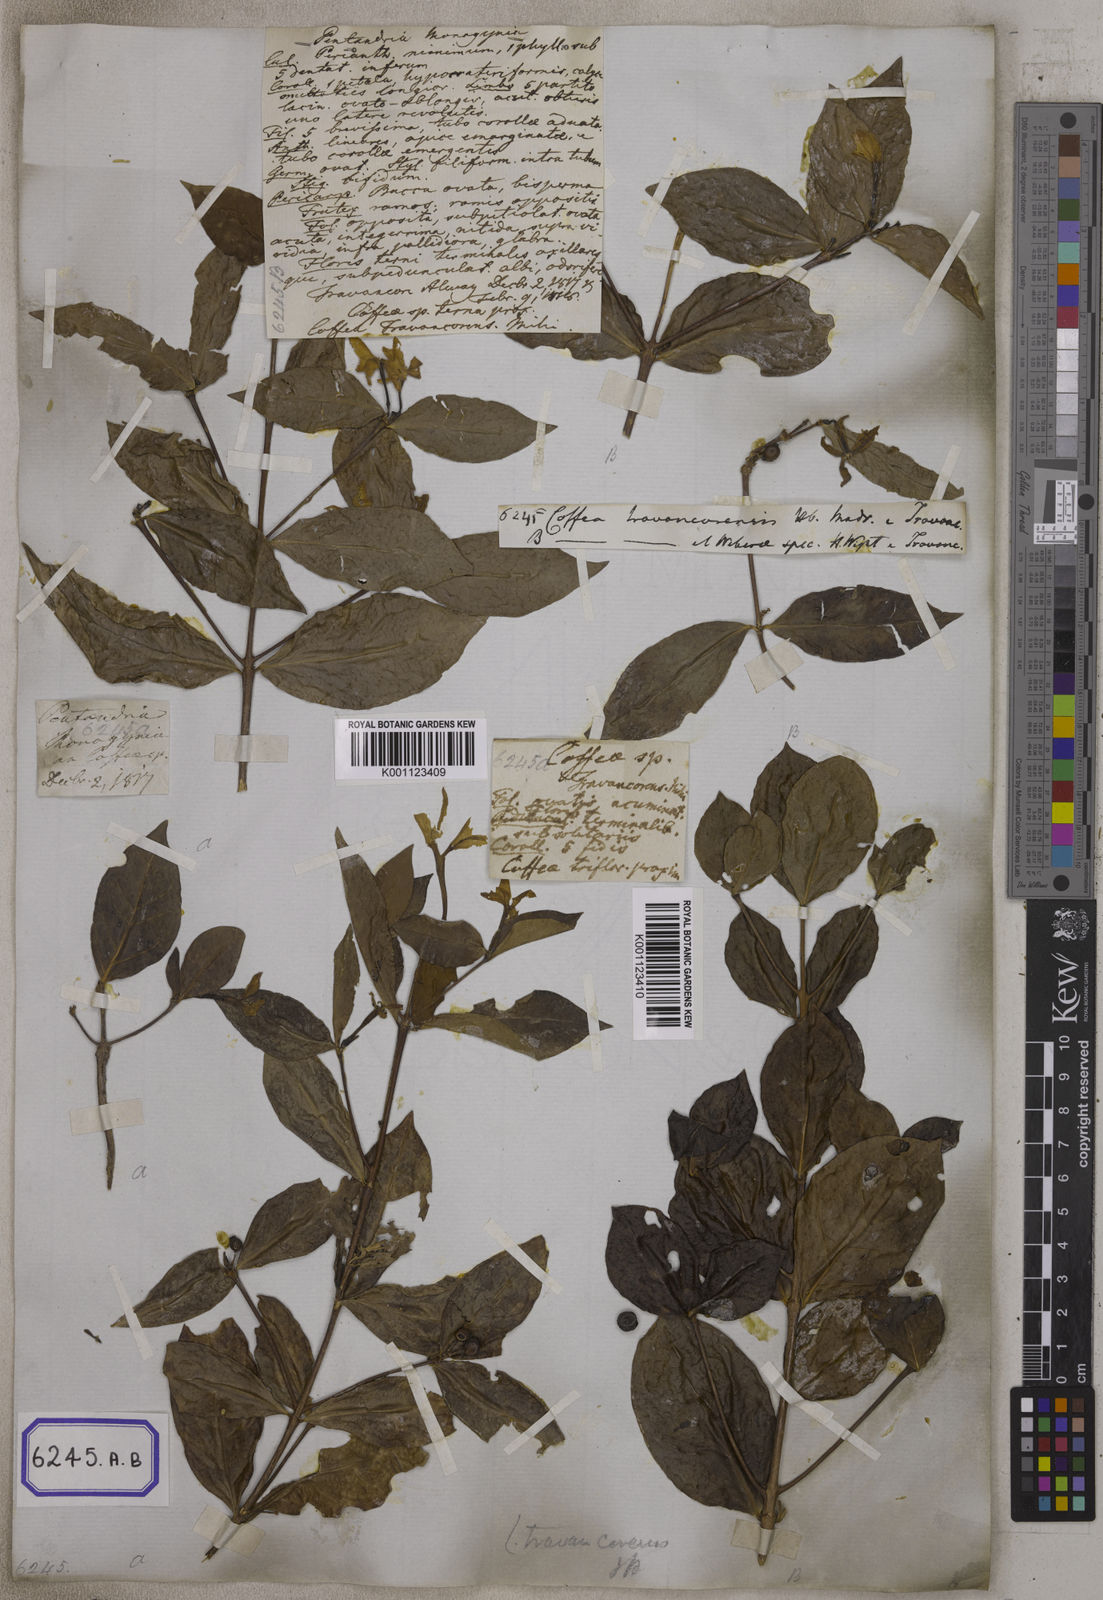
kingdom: Plantae
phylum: Tracheophyta
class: Magnoliopsida
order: Gentianales
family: Rubiaceae
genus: Coffea
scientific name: Coffea travancorensis
